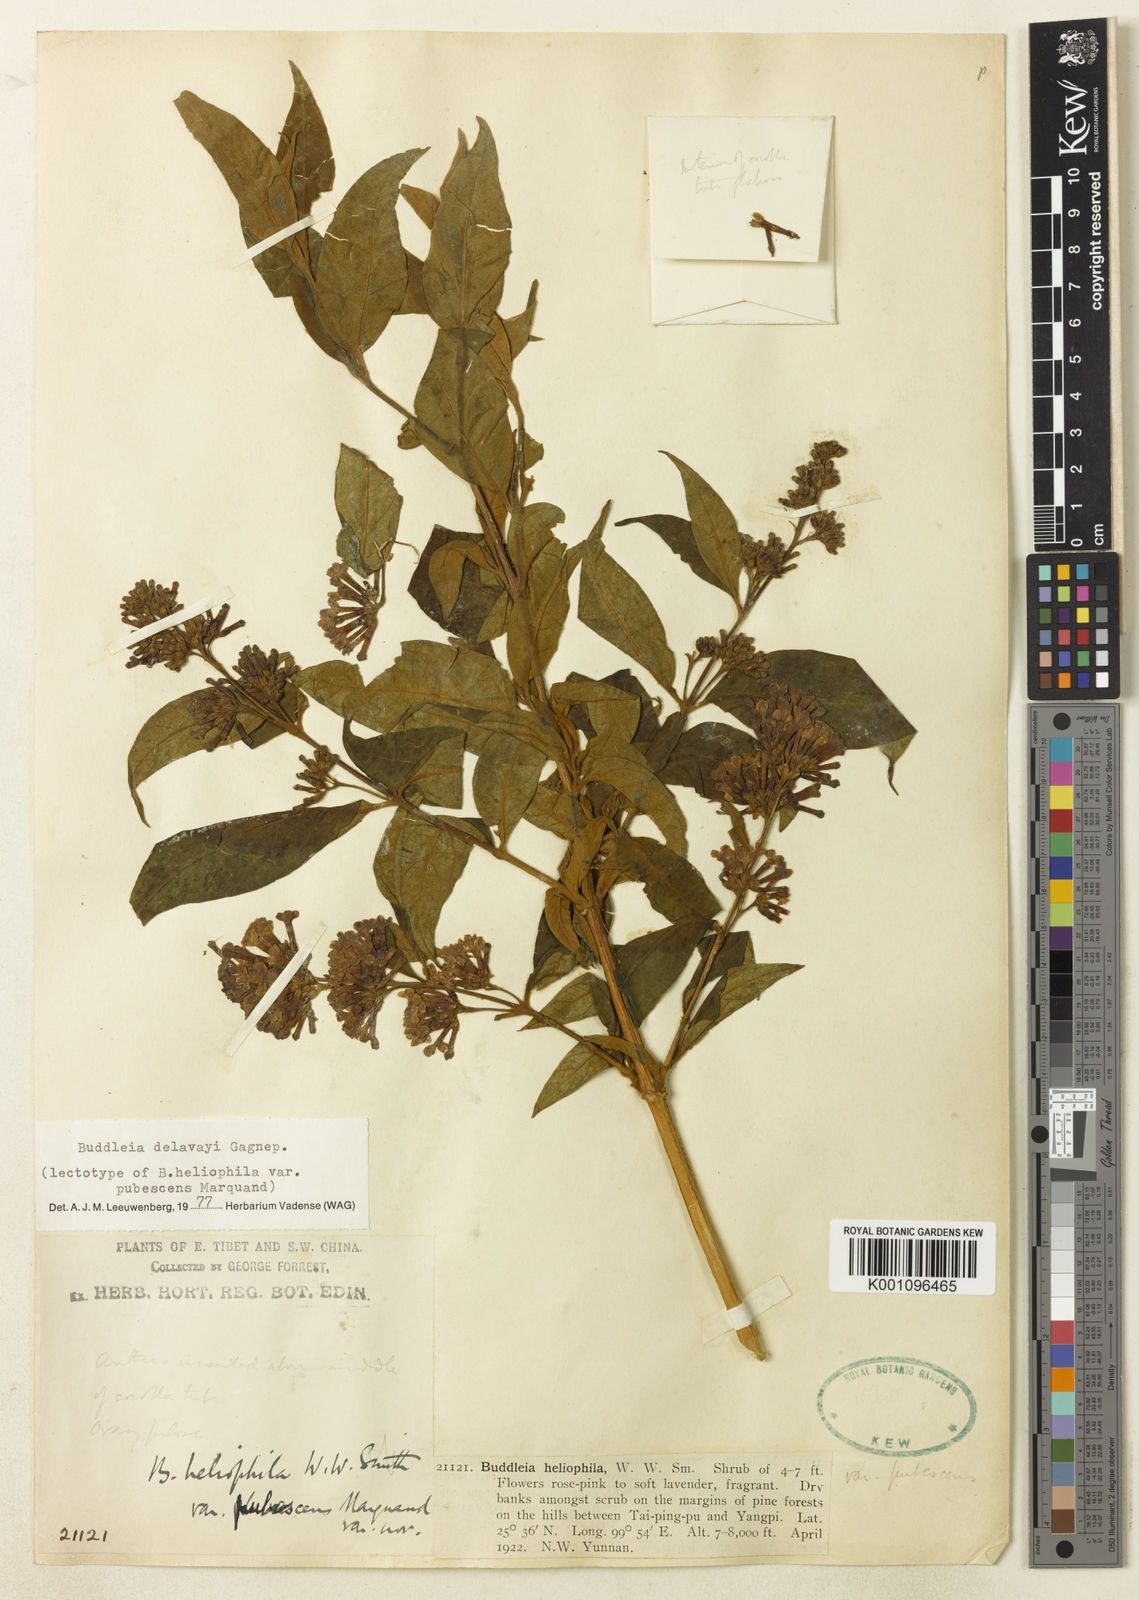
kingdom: Plantae
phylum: Tracheophyta
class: Magnoliopsida
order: Lamiales
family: Scrophulariaceae
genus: Buddleja
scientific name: Buddleja delavayi
